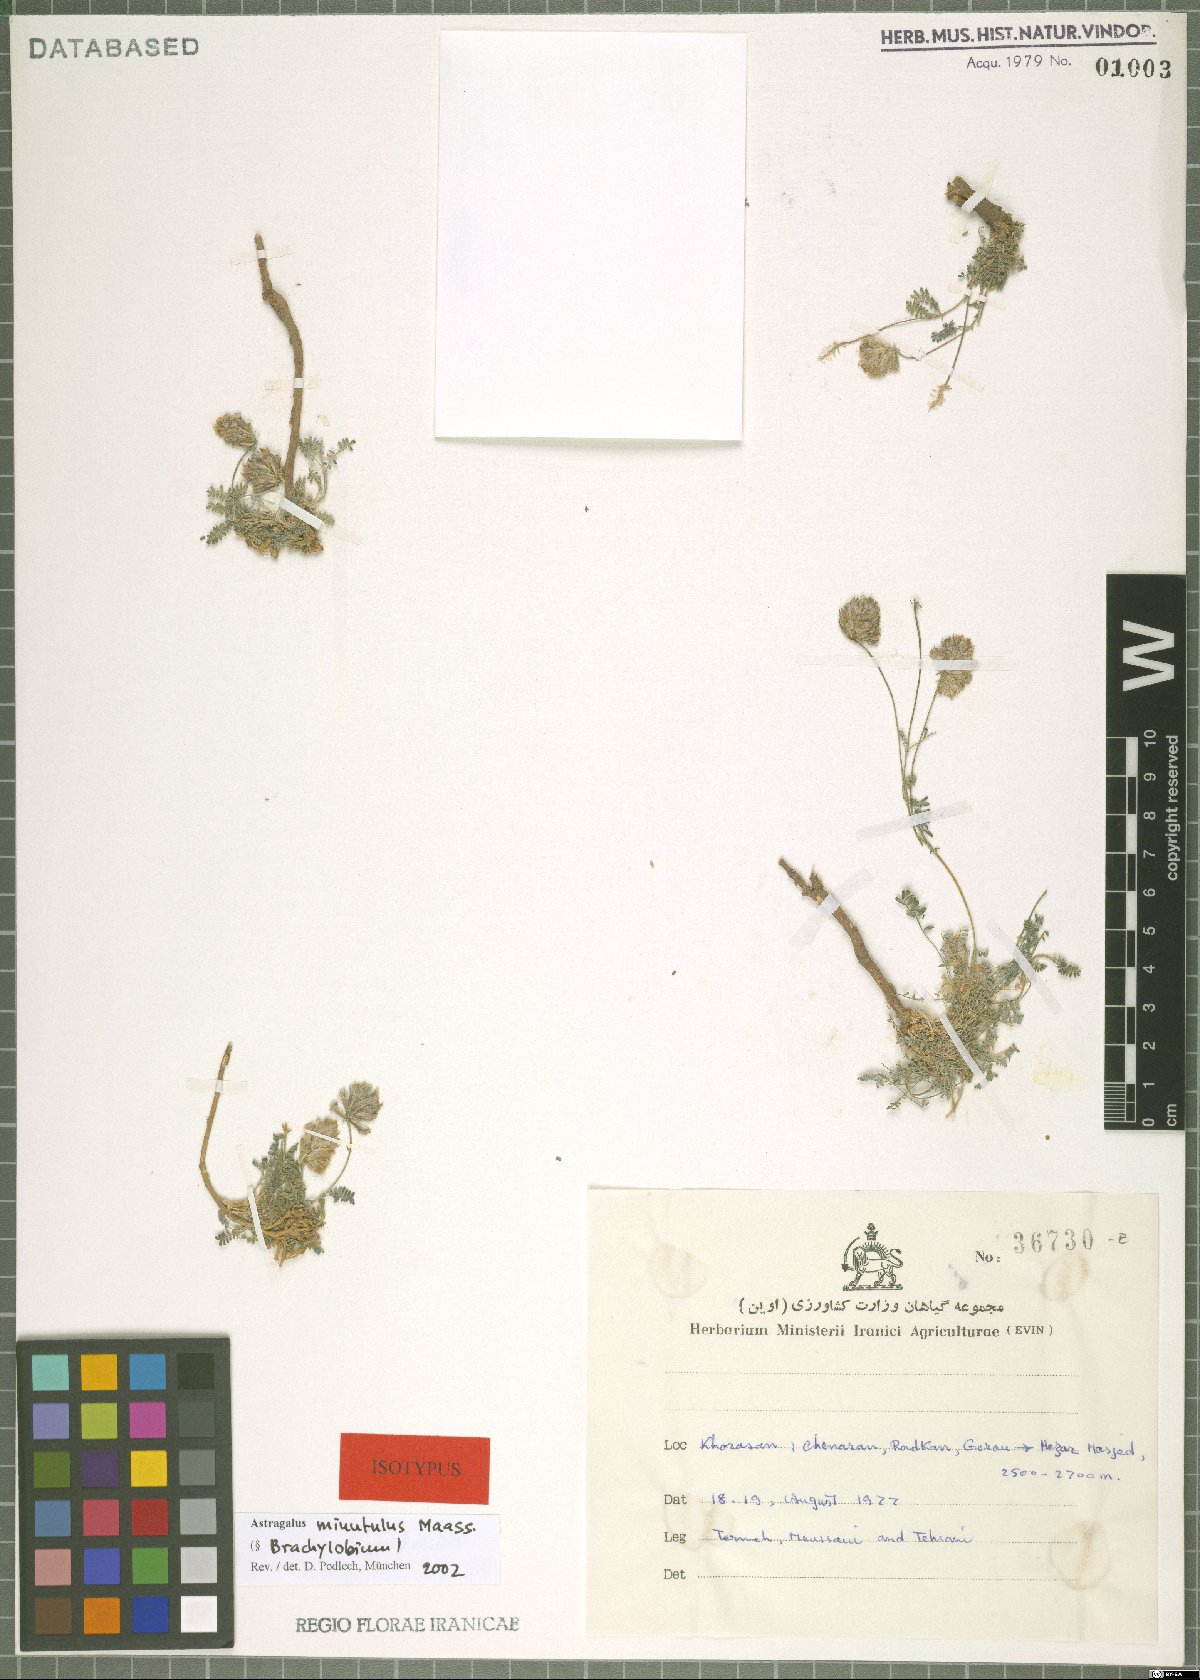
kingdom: Plantae
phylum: Tracheophyta
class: Magnoliopsida
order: Fabales
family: Fabaceae
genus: Astragalus
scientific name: Astragalus minutulus
